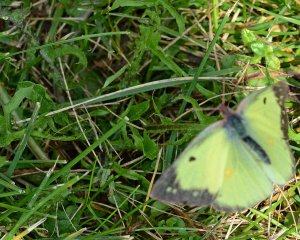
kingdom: Animalia
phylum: Arthropoda
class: Insecta
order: Lepidoptera
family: Pieridae
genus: Colias
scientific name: Colias philodice
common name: Clouded Sulphur
